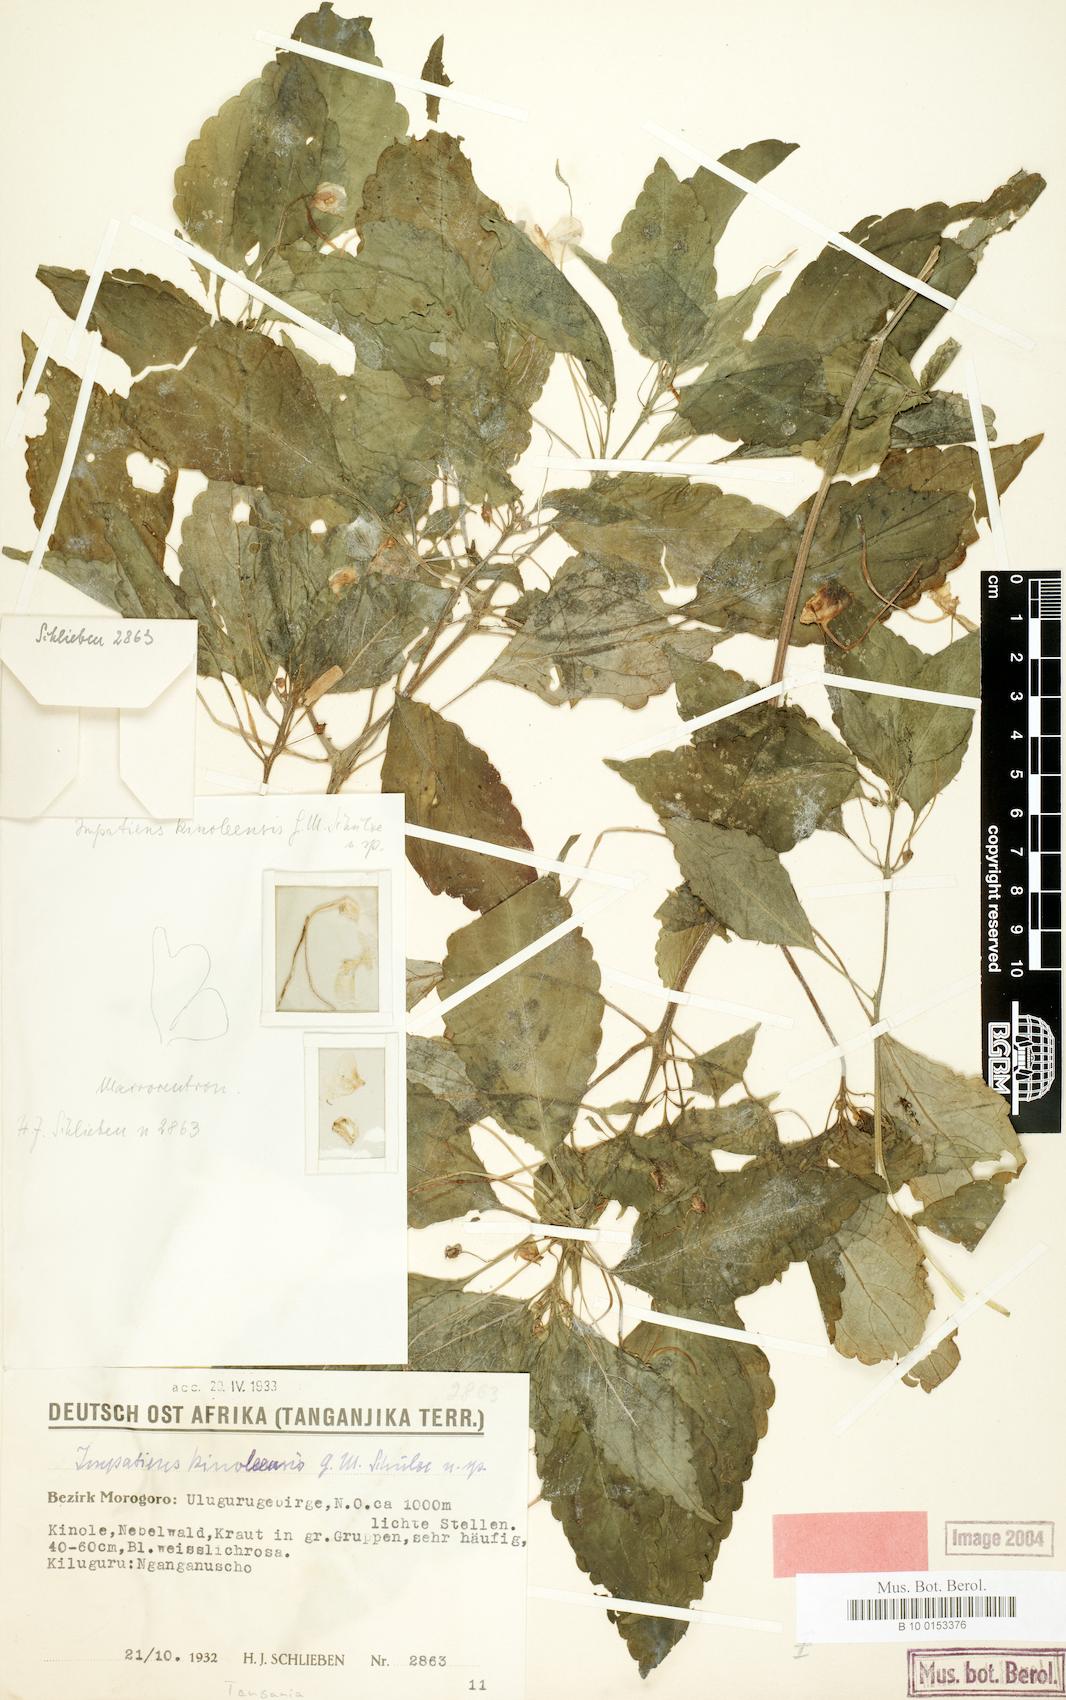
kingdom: Plantae
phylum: Tracheophyta
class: Magnoliopsida
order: Ericales
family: Balsaminaceae
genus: Impatiens
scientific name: Impatiens engleri
